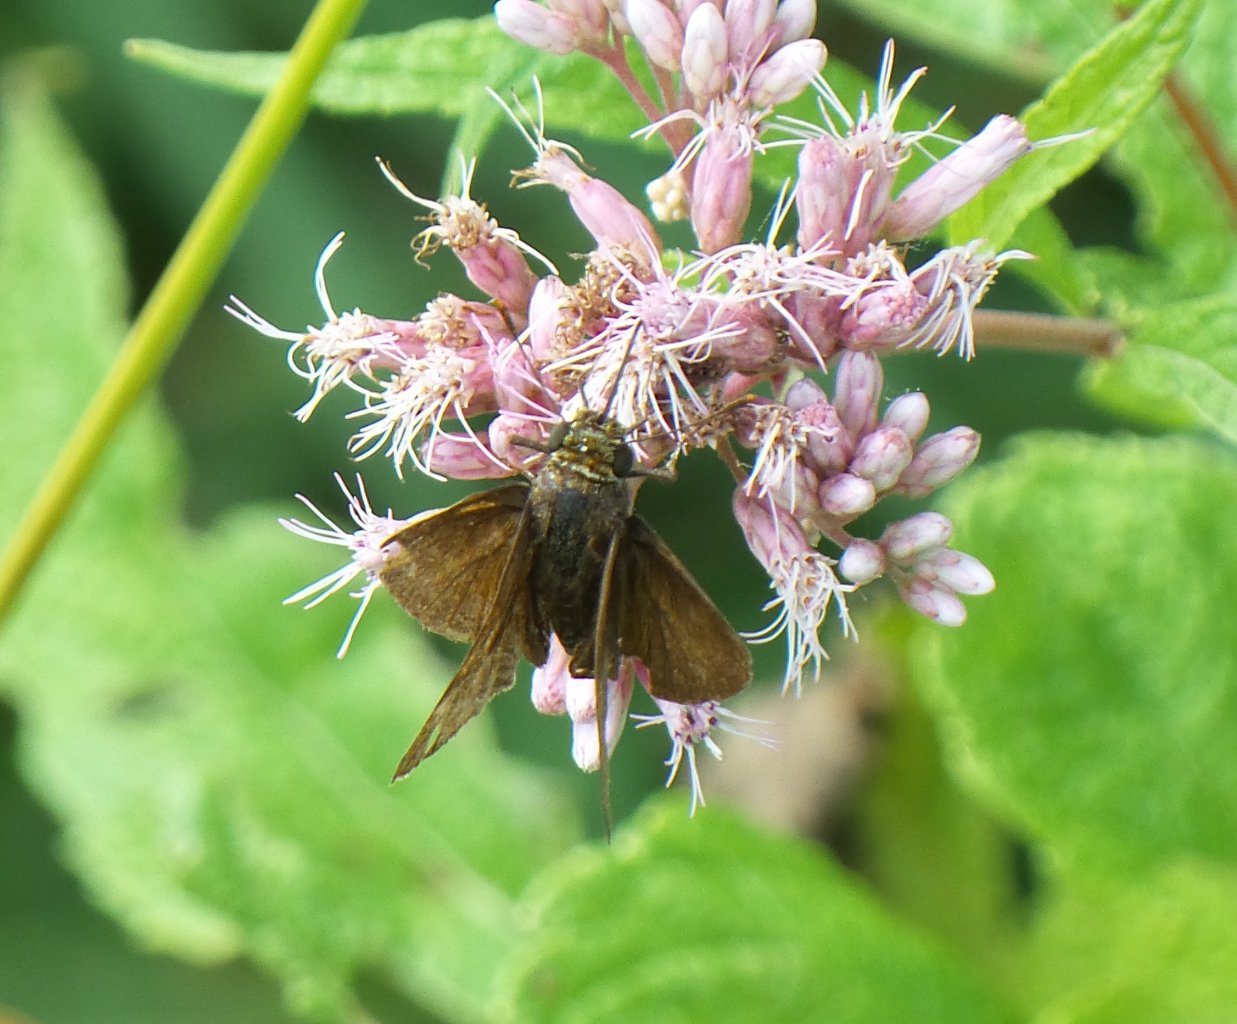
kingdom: Animalia
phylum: Arthropoda
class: Insecta
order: Lepidoptera
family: Hesperiidae
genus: Euphyes
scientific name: Euphyes vestris
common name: Dun Skipper
